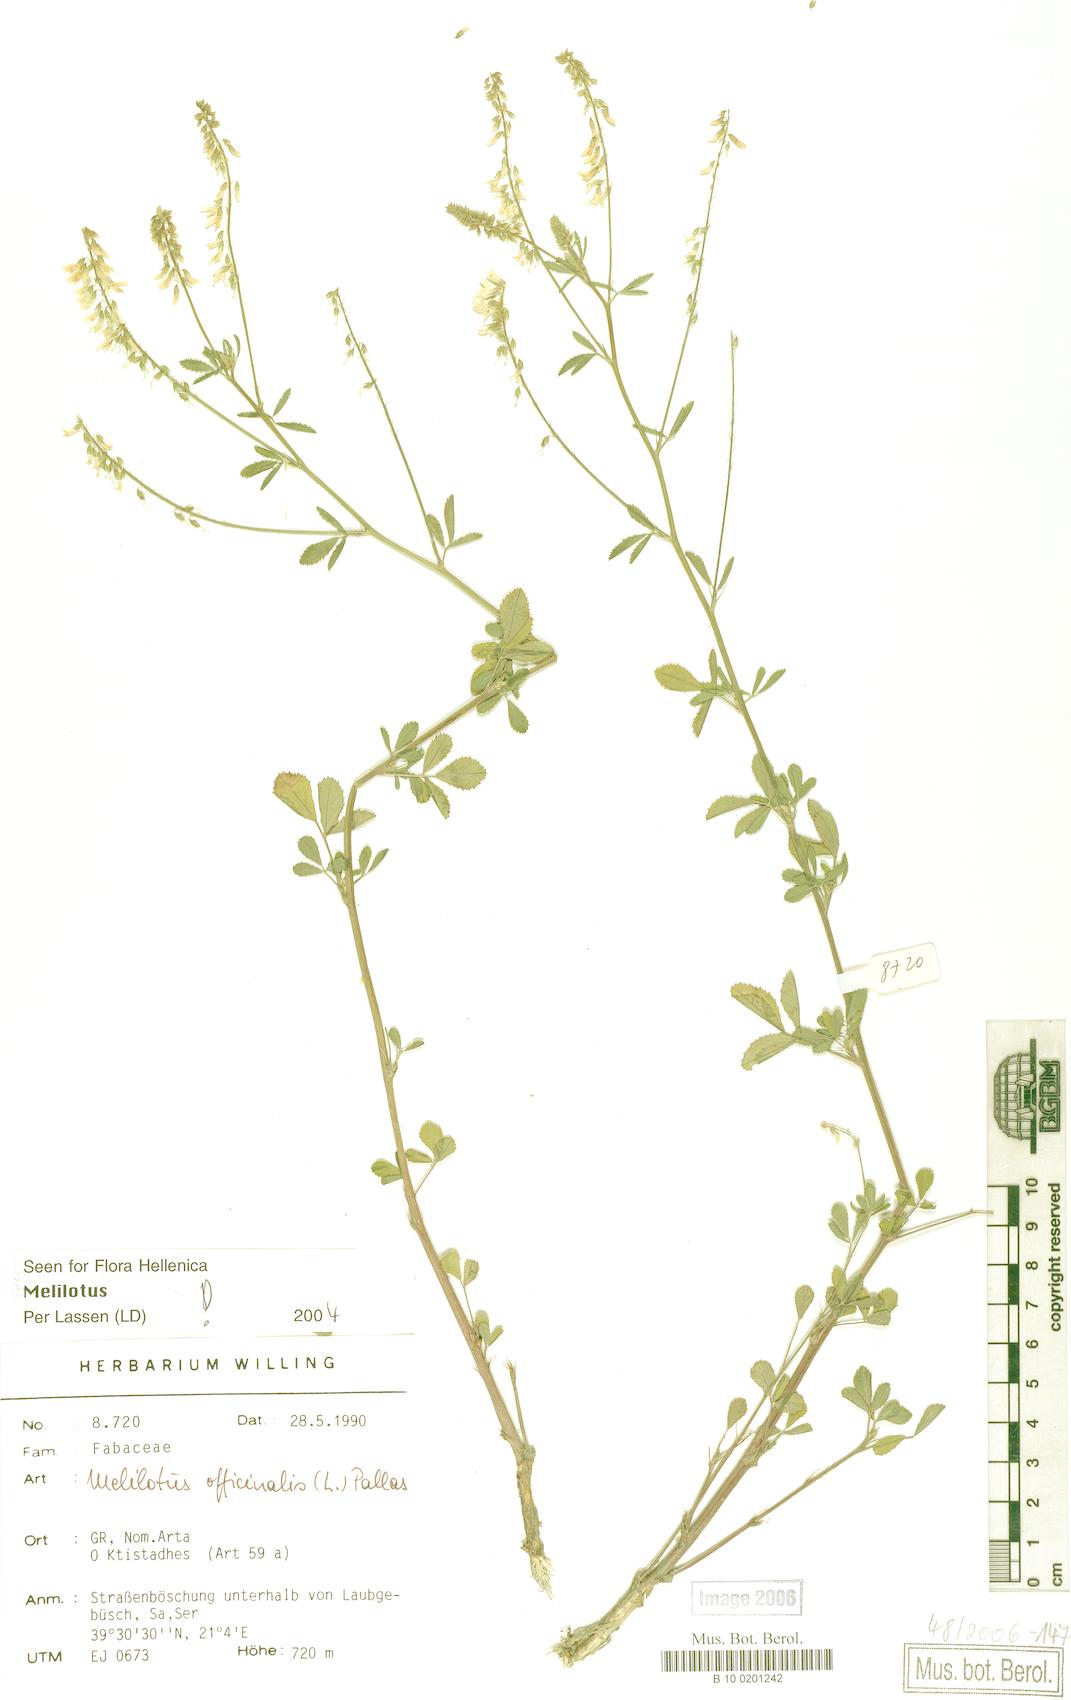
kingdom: Plantae
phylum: Tracheophyta
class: Magnoliopsida
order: Fabales
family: Fabaceae
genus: Melilotus
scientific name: Melilotus officinalis
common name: Sweetclover
